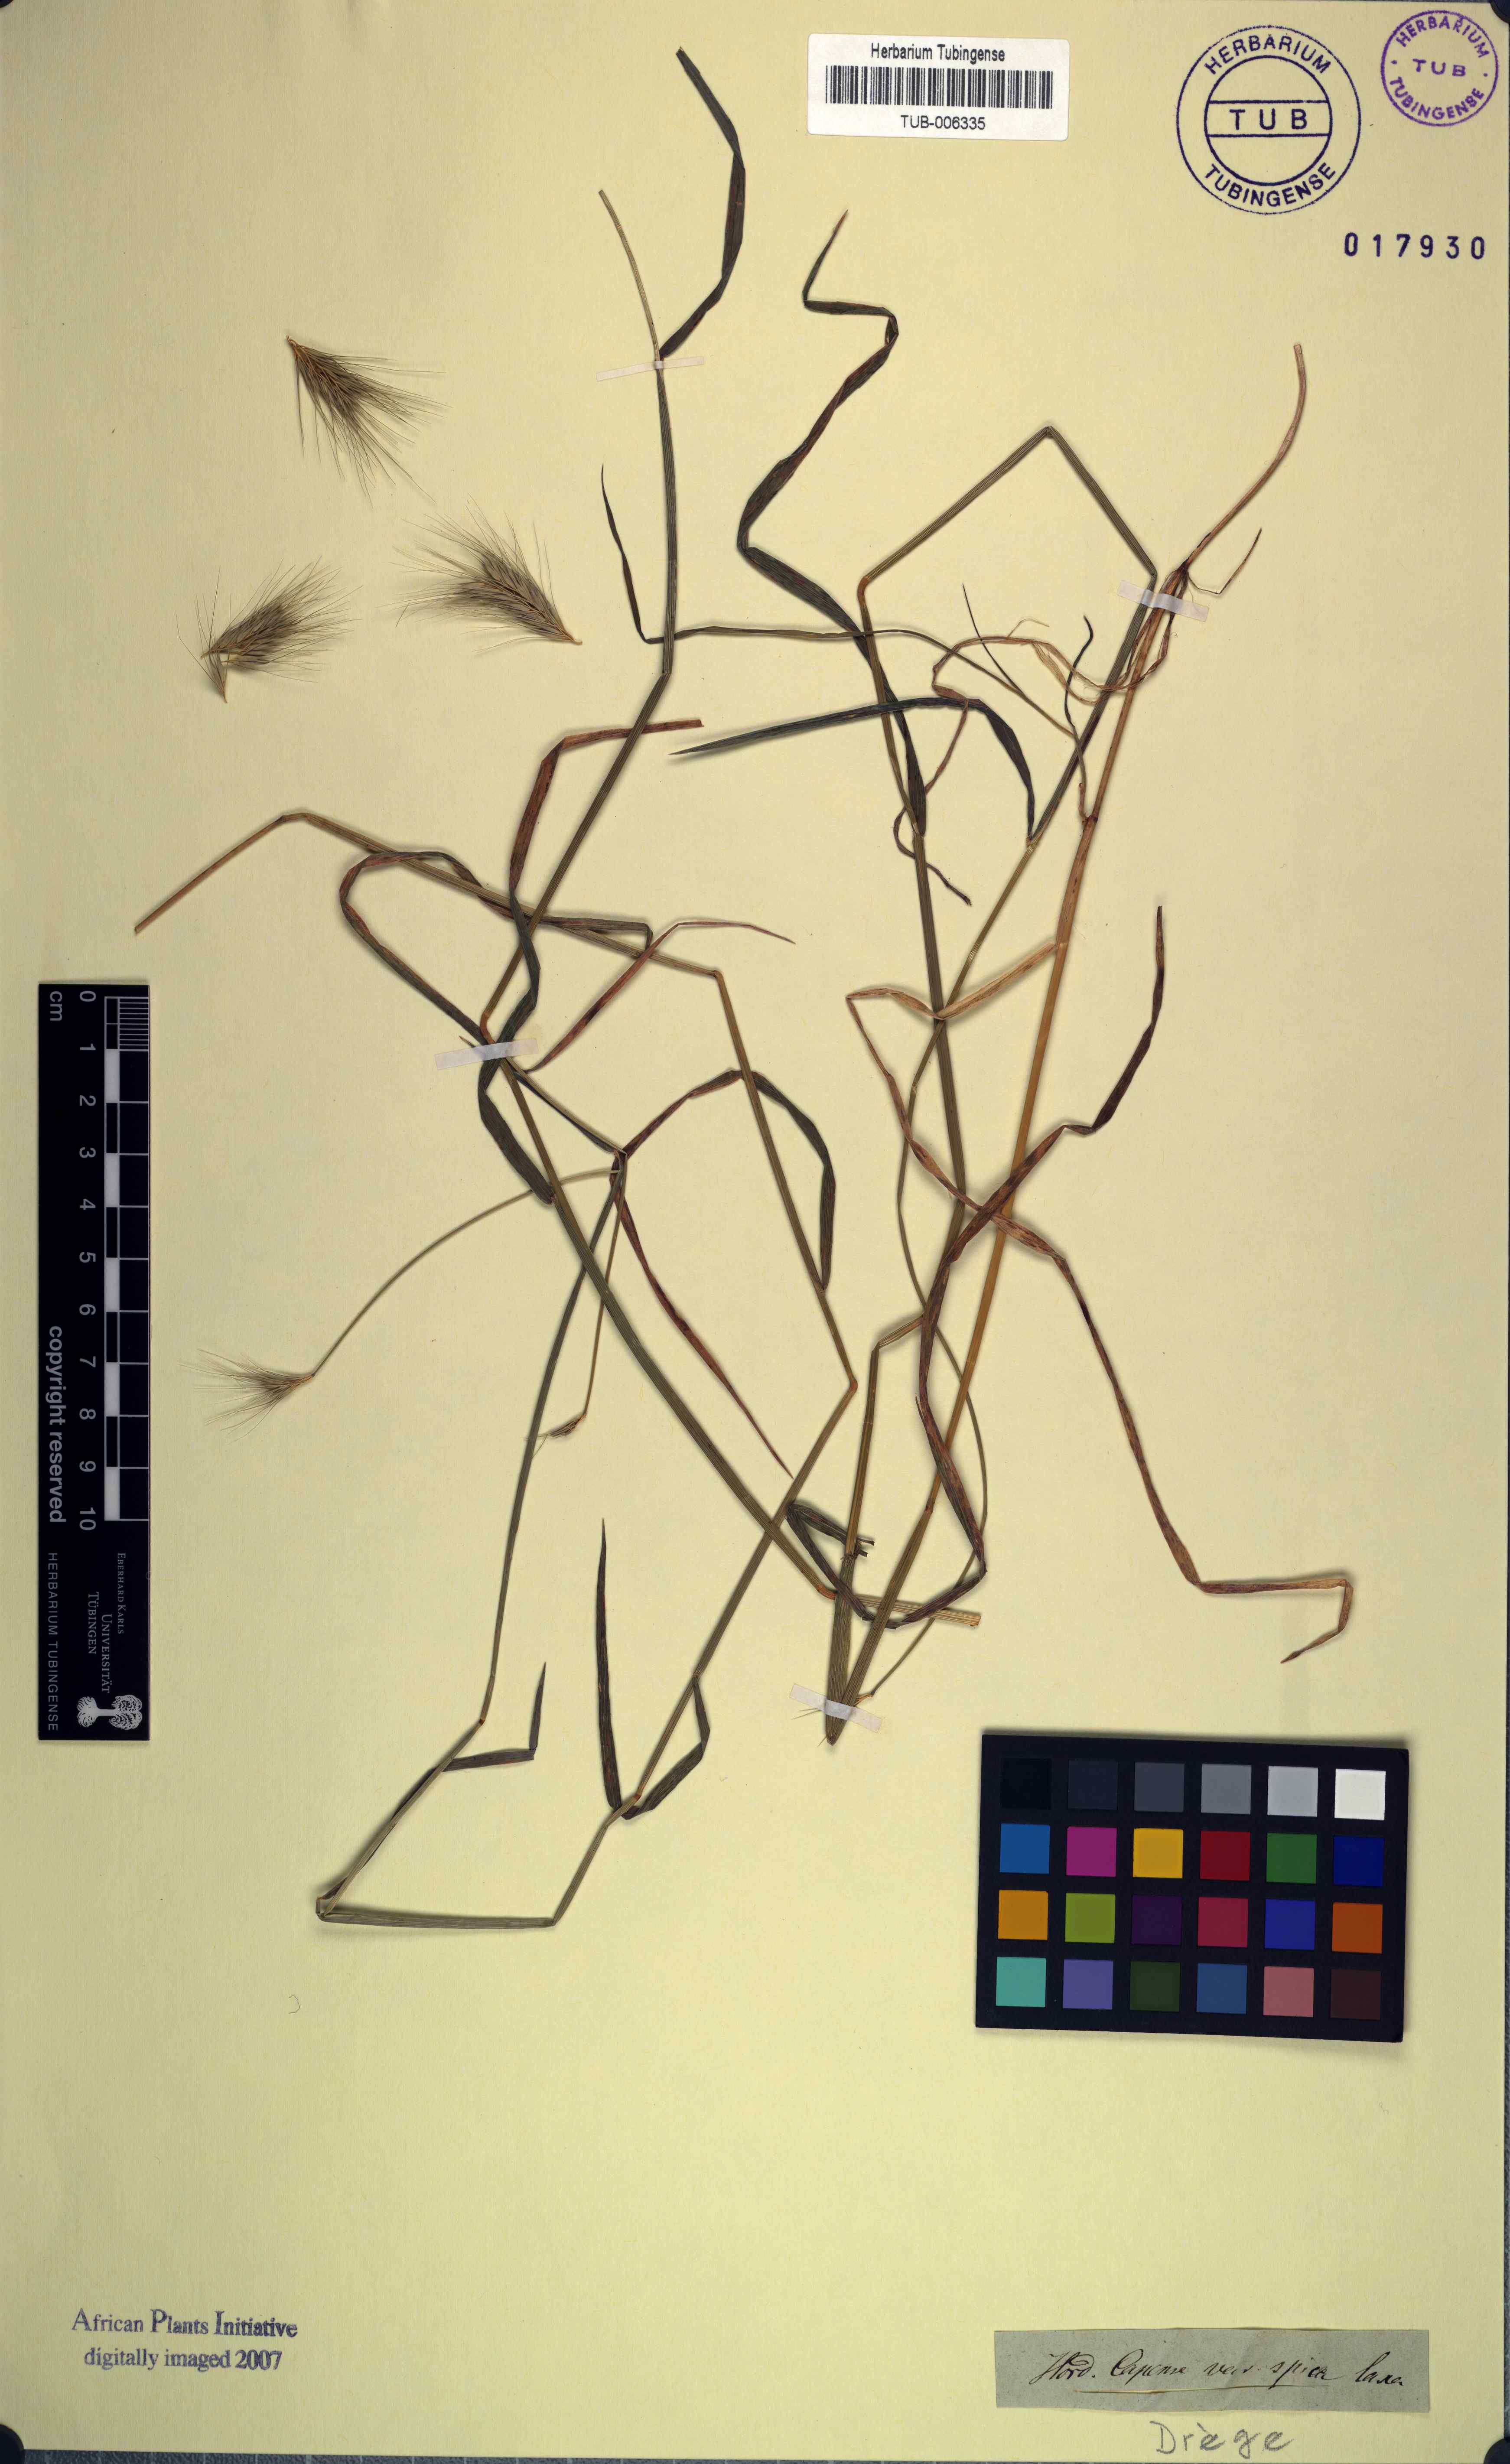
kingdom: Plantae
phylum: Tracheophyta
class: Liliopsida
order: Poales
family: Poaceae
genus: Hordeum
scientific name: Hordeum capense
